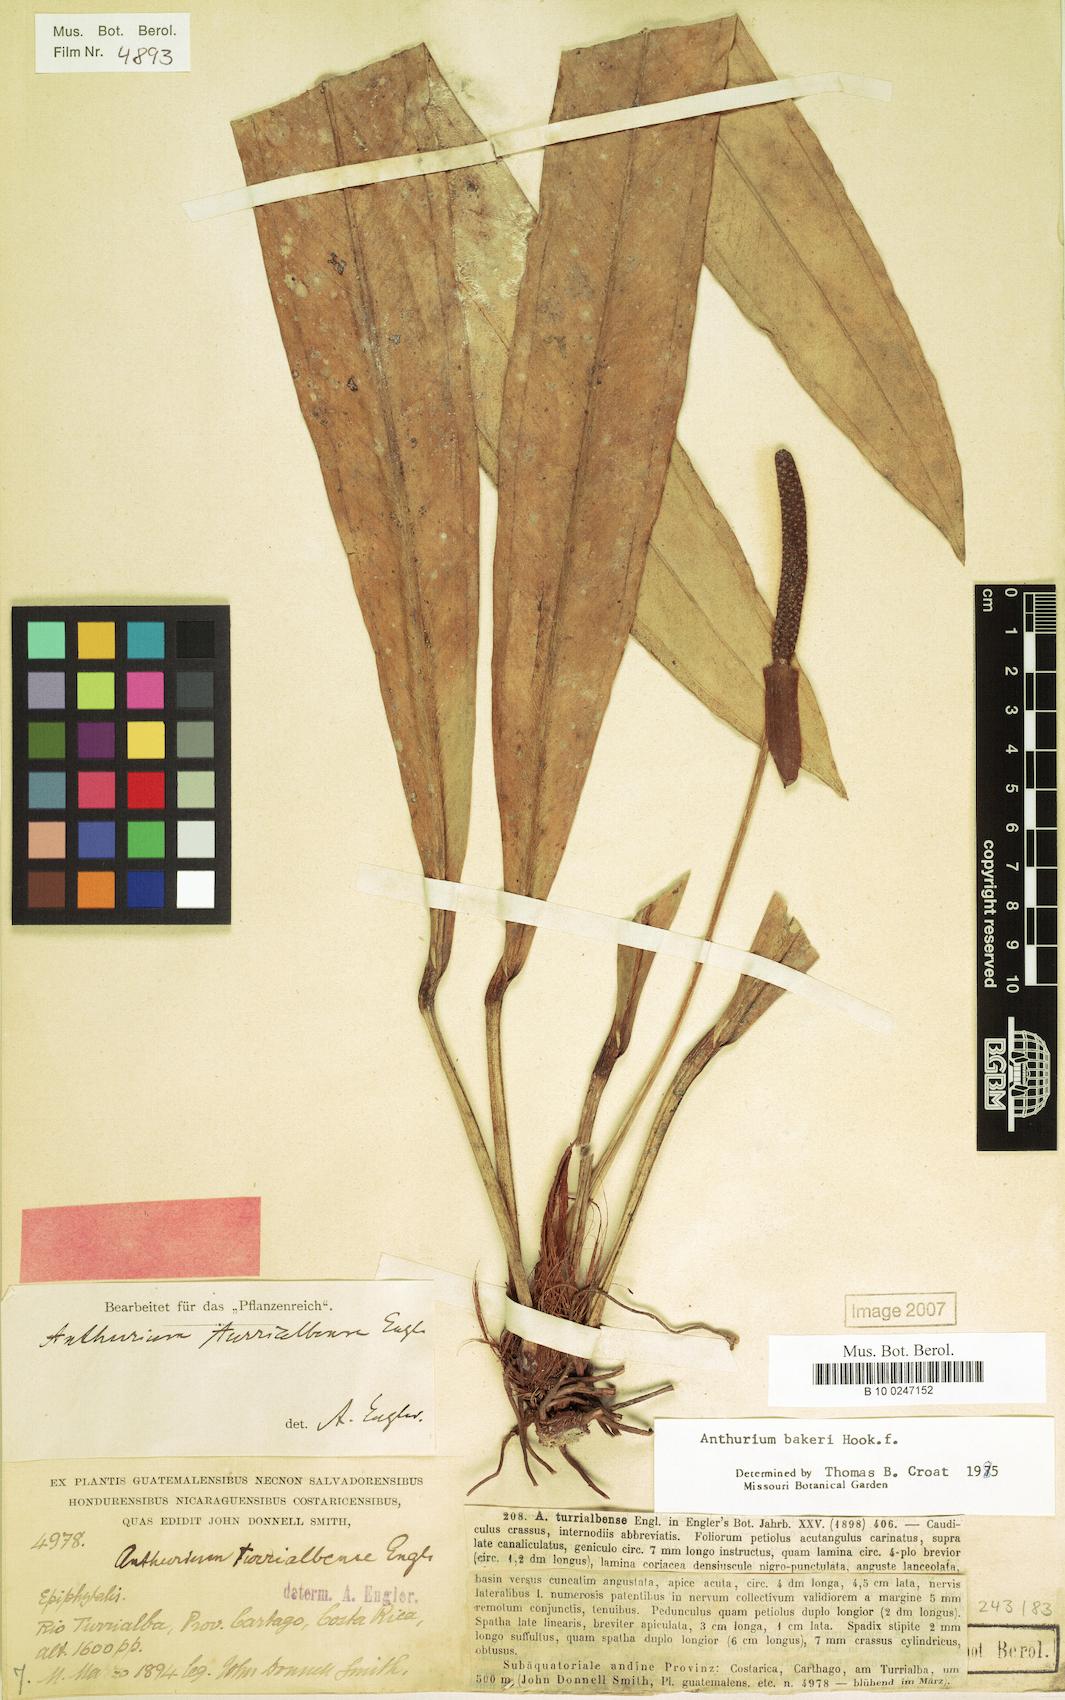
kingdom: Plantae
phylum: Tracheophyta
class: Liliopsida
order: Alismatales
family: Araceae
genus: Anthurium
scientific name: Anthurium bakeri
